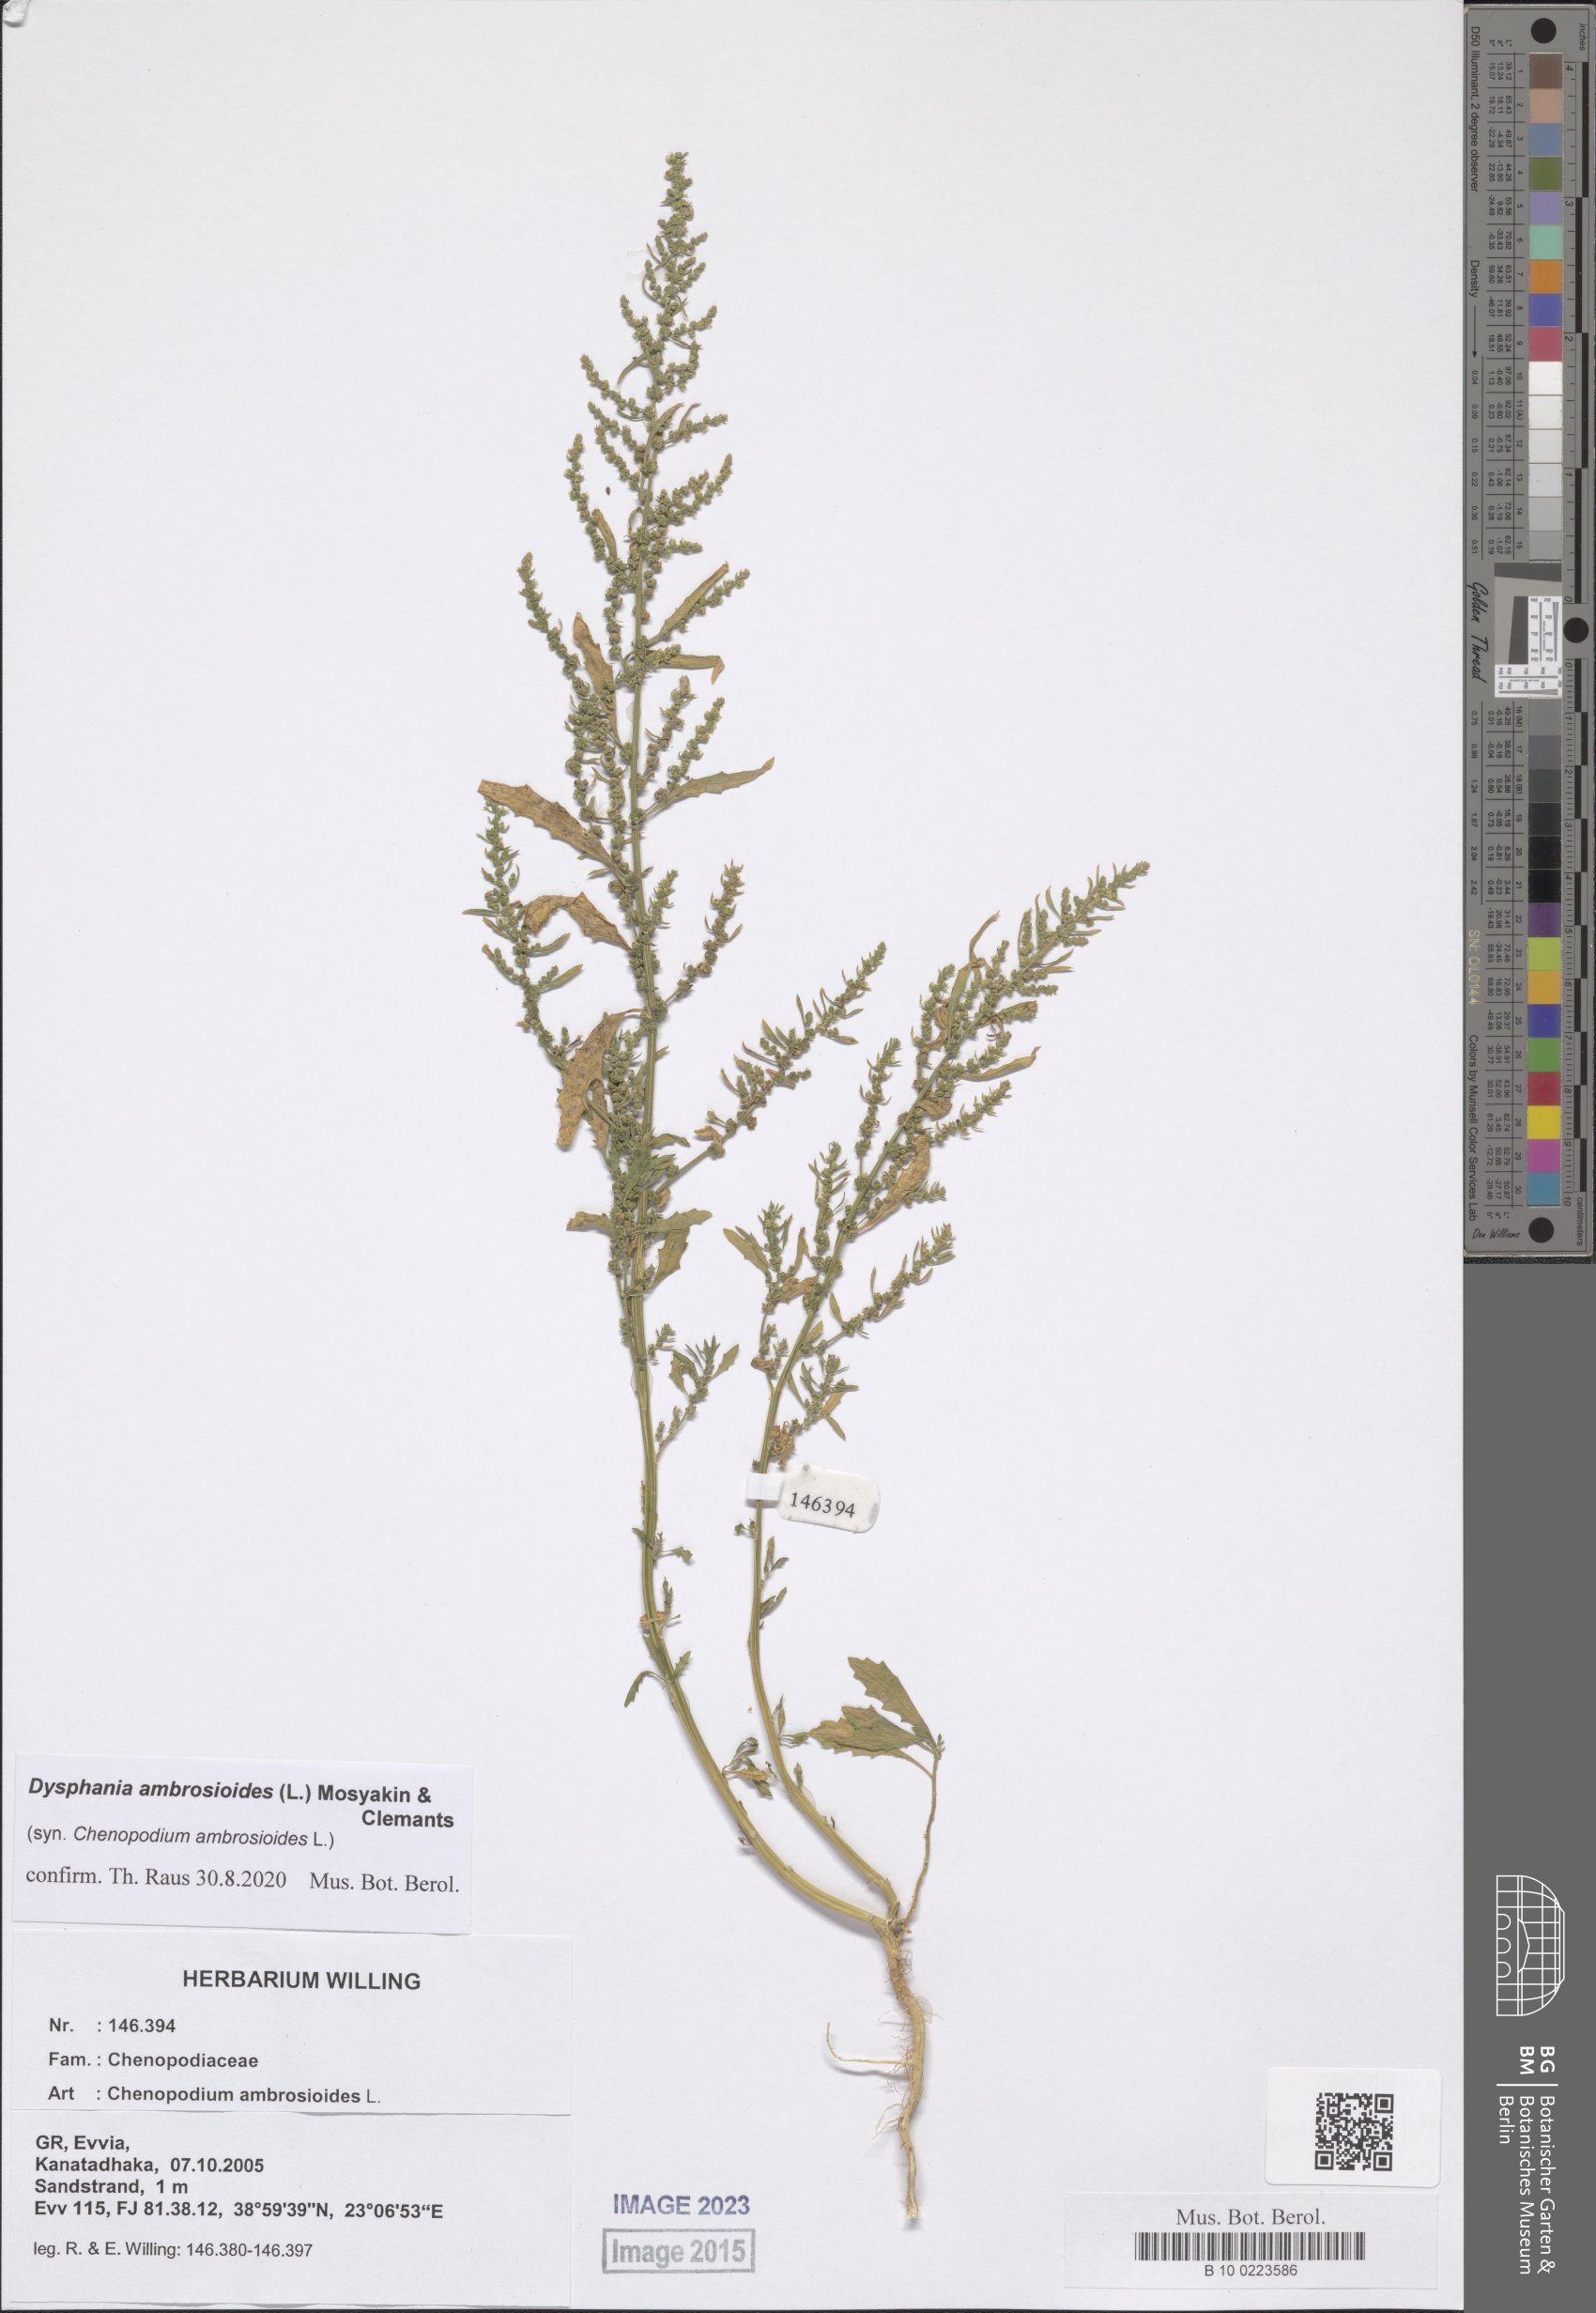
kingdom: Plantae
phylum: Tracheophyta
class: Magnoliopsida
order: Caryophyllales
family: Amaranthaceae
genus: Dysphania
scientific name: Dysphania ambrosioides
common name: Wormseed
